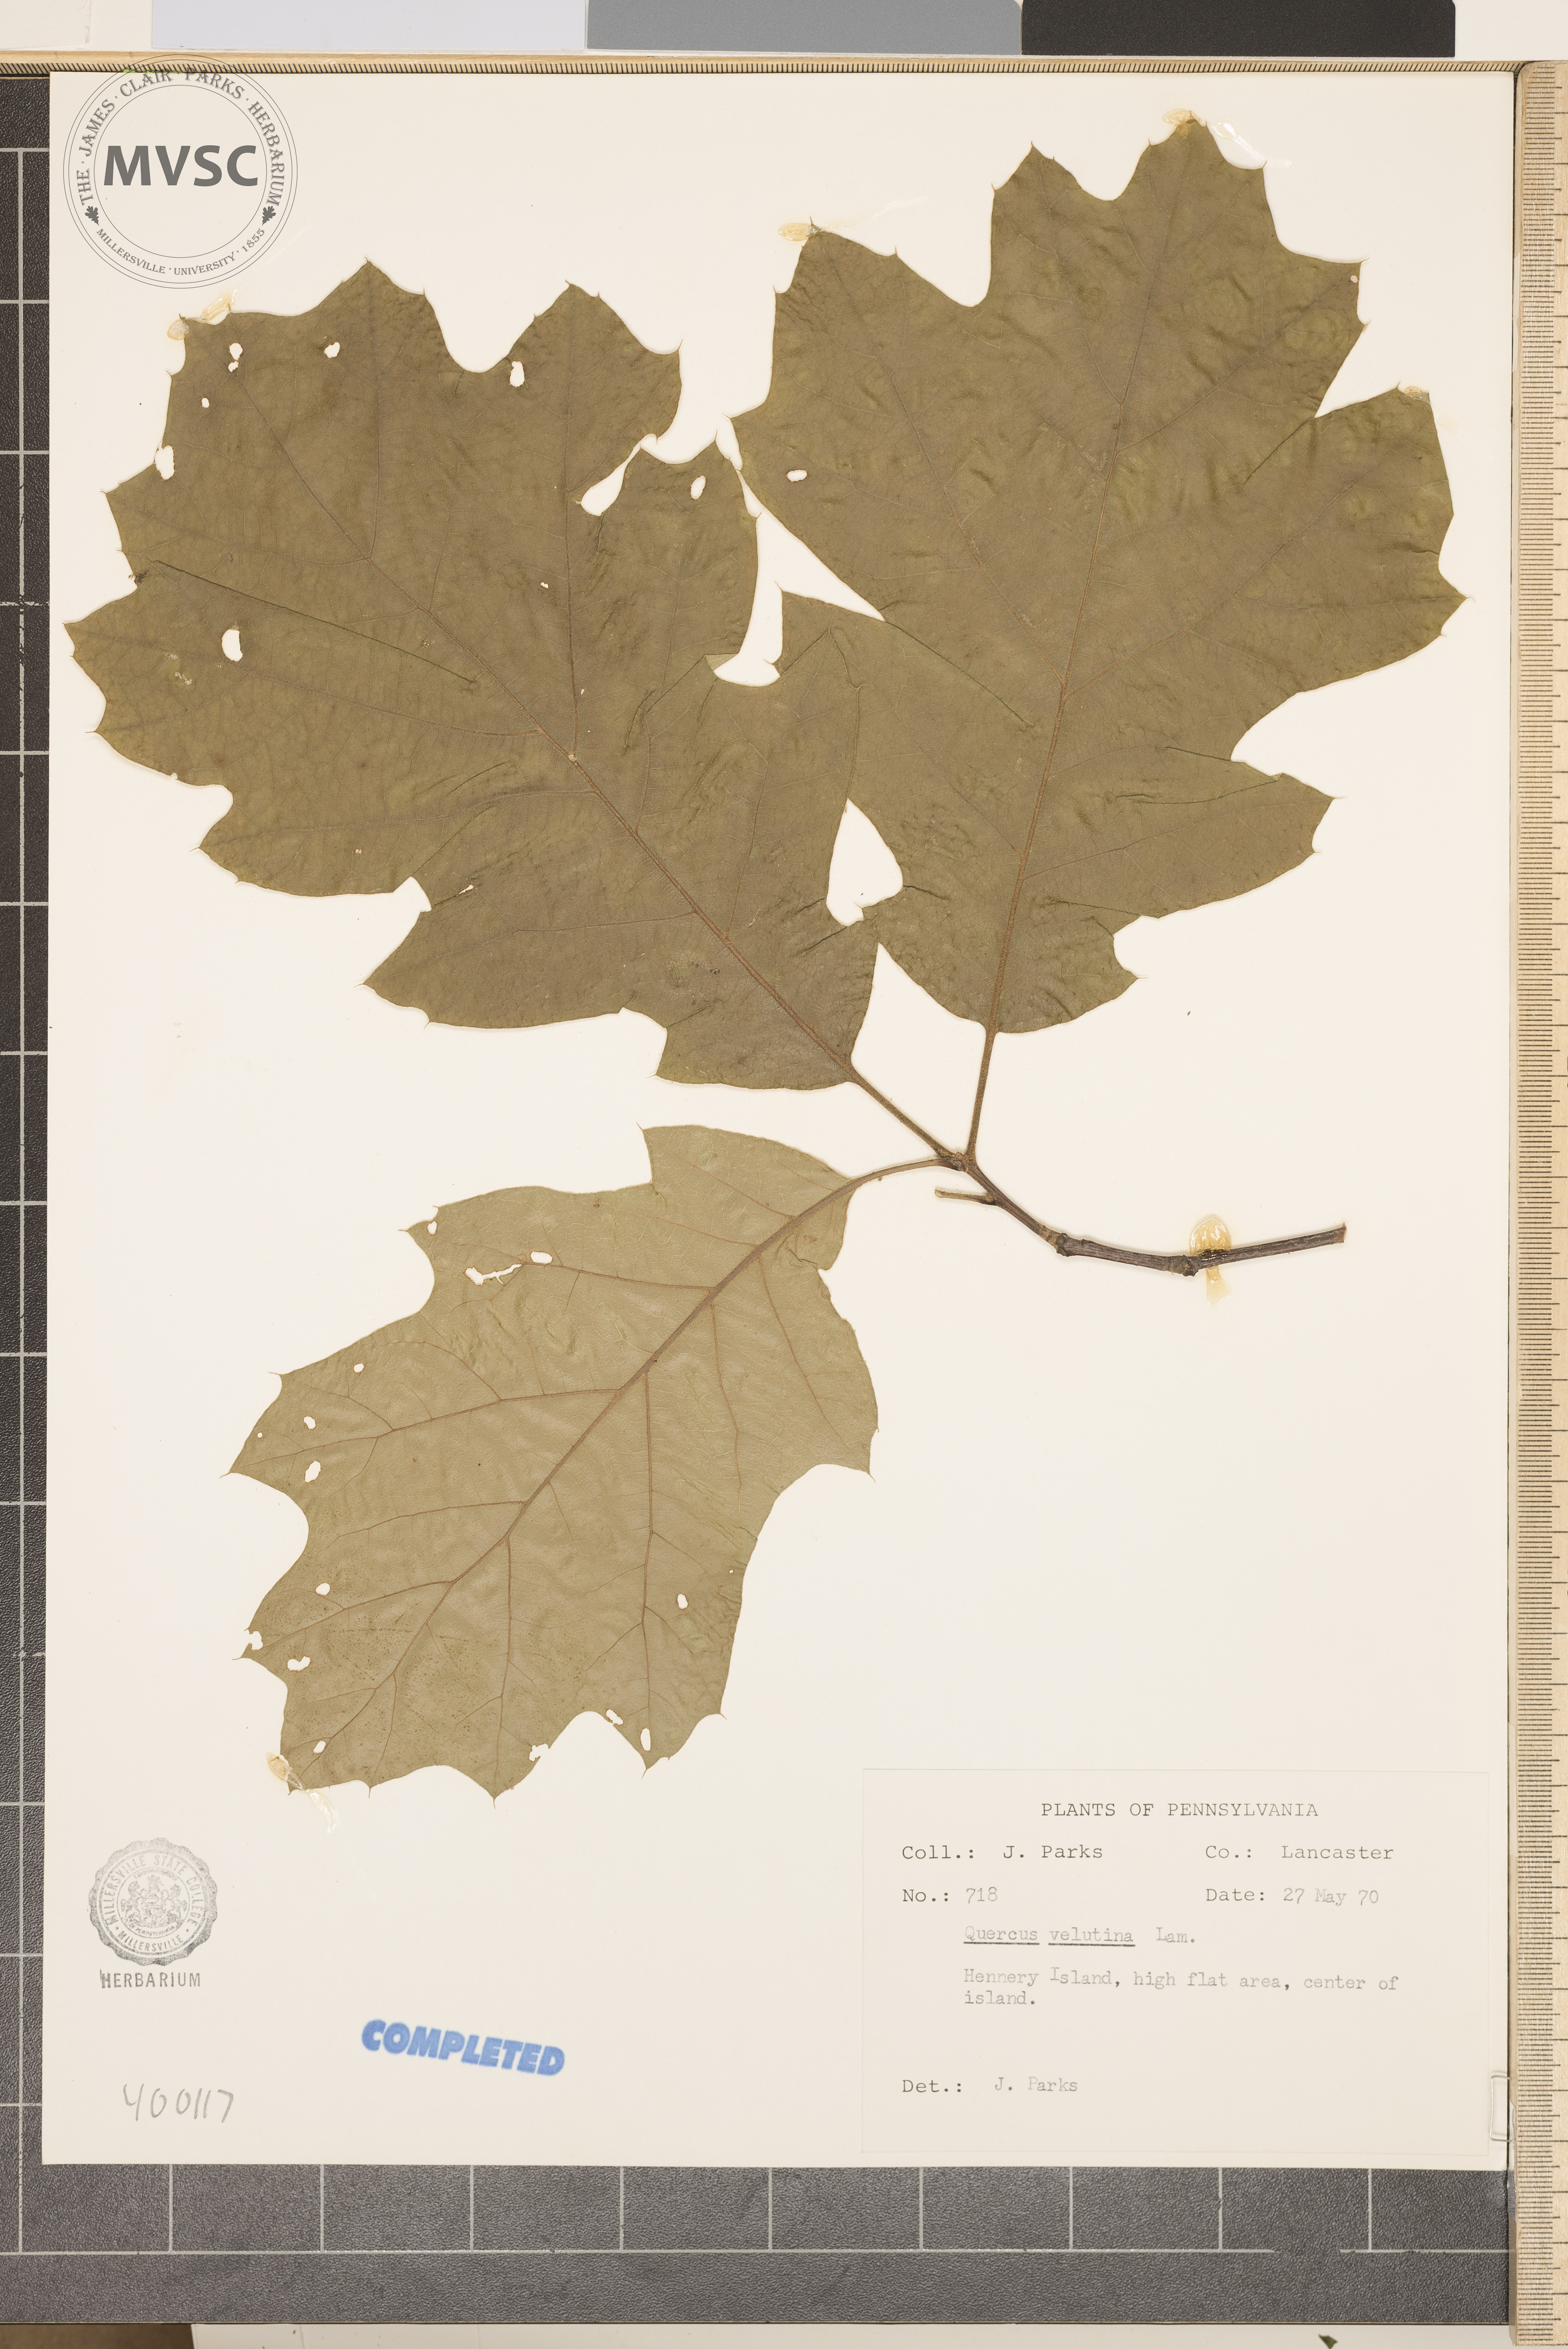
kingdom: Plantae
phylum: Tracheophyta
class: Magnoliopsida
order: Fagales
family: Fagaceae
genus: Quercus
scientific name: Quercus velutina
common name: black oak
